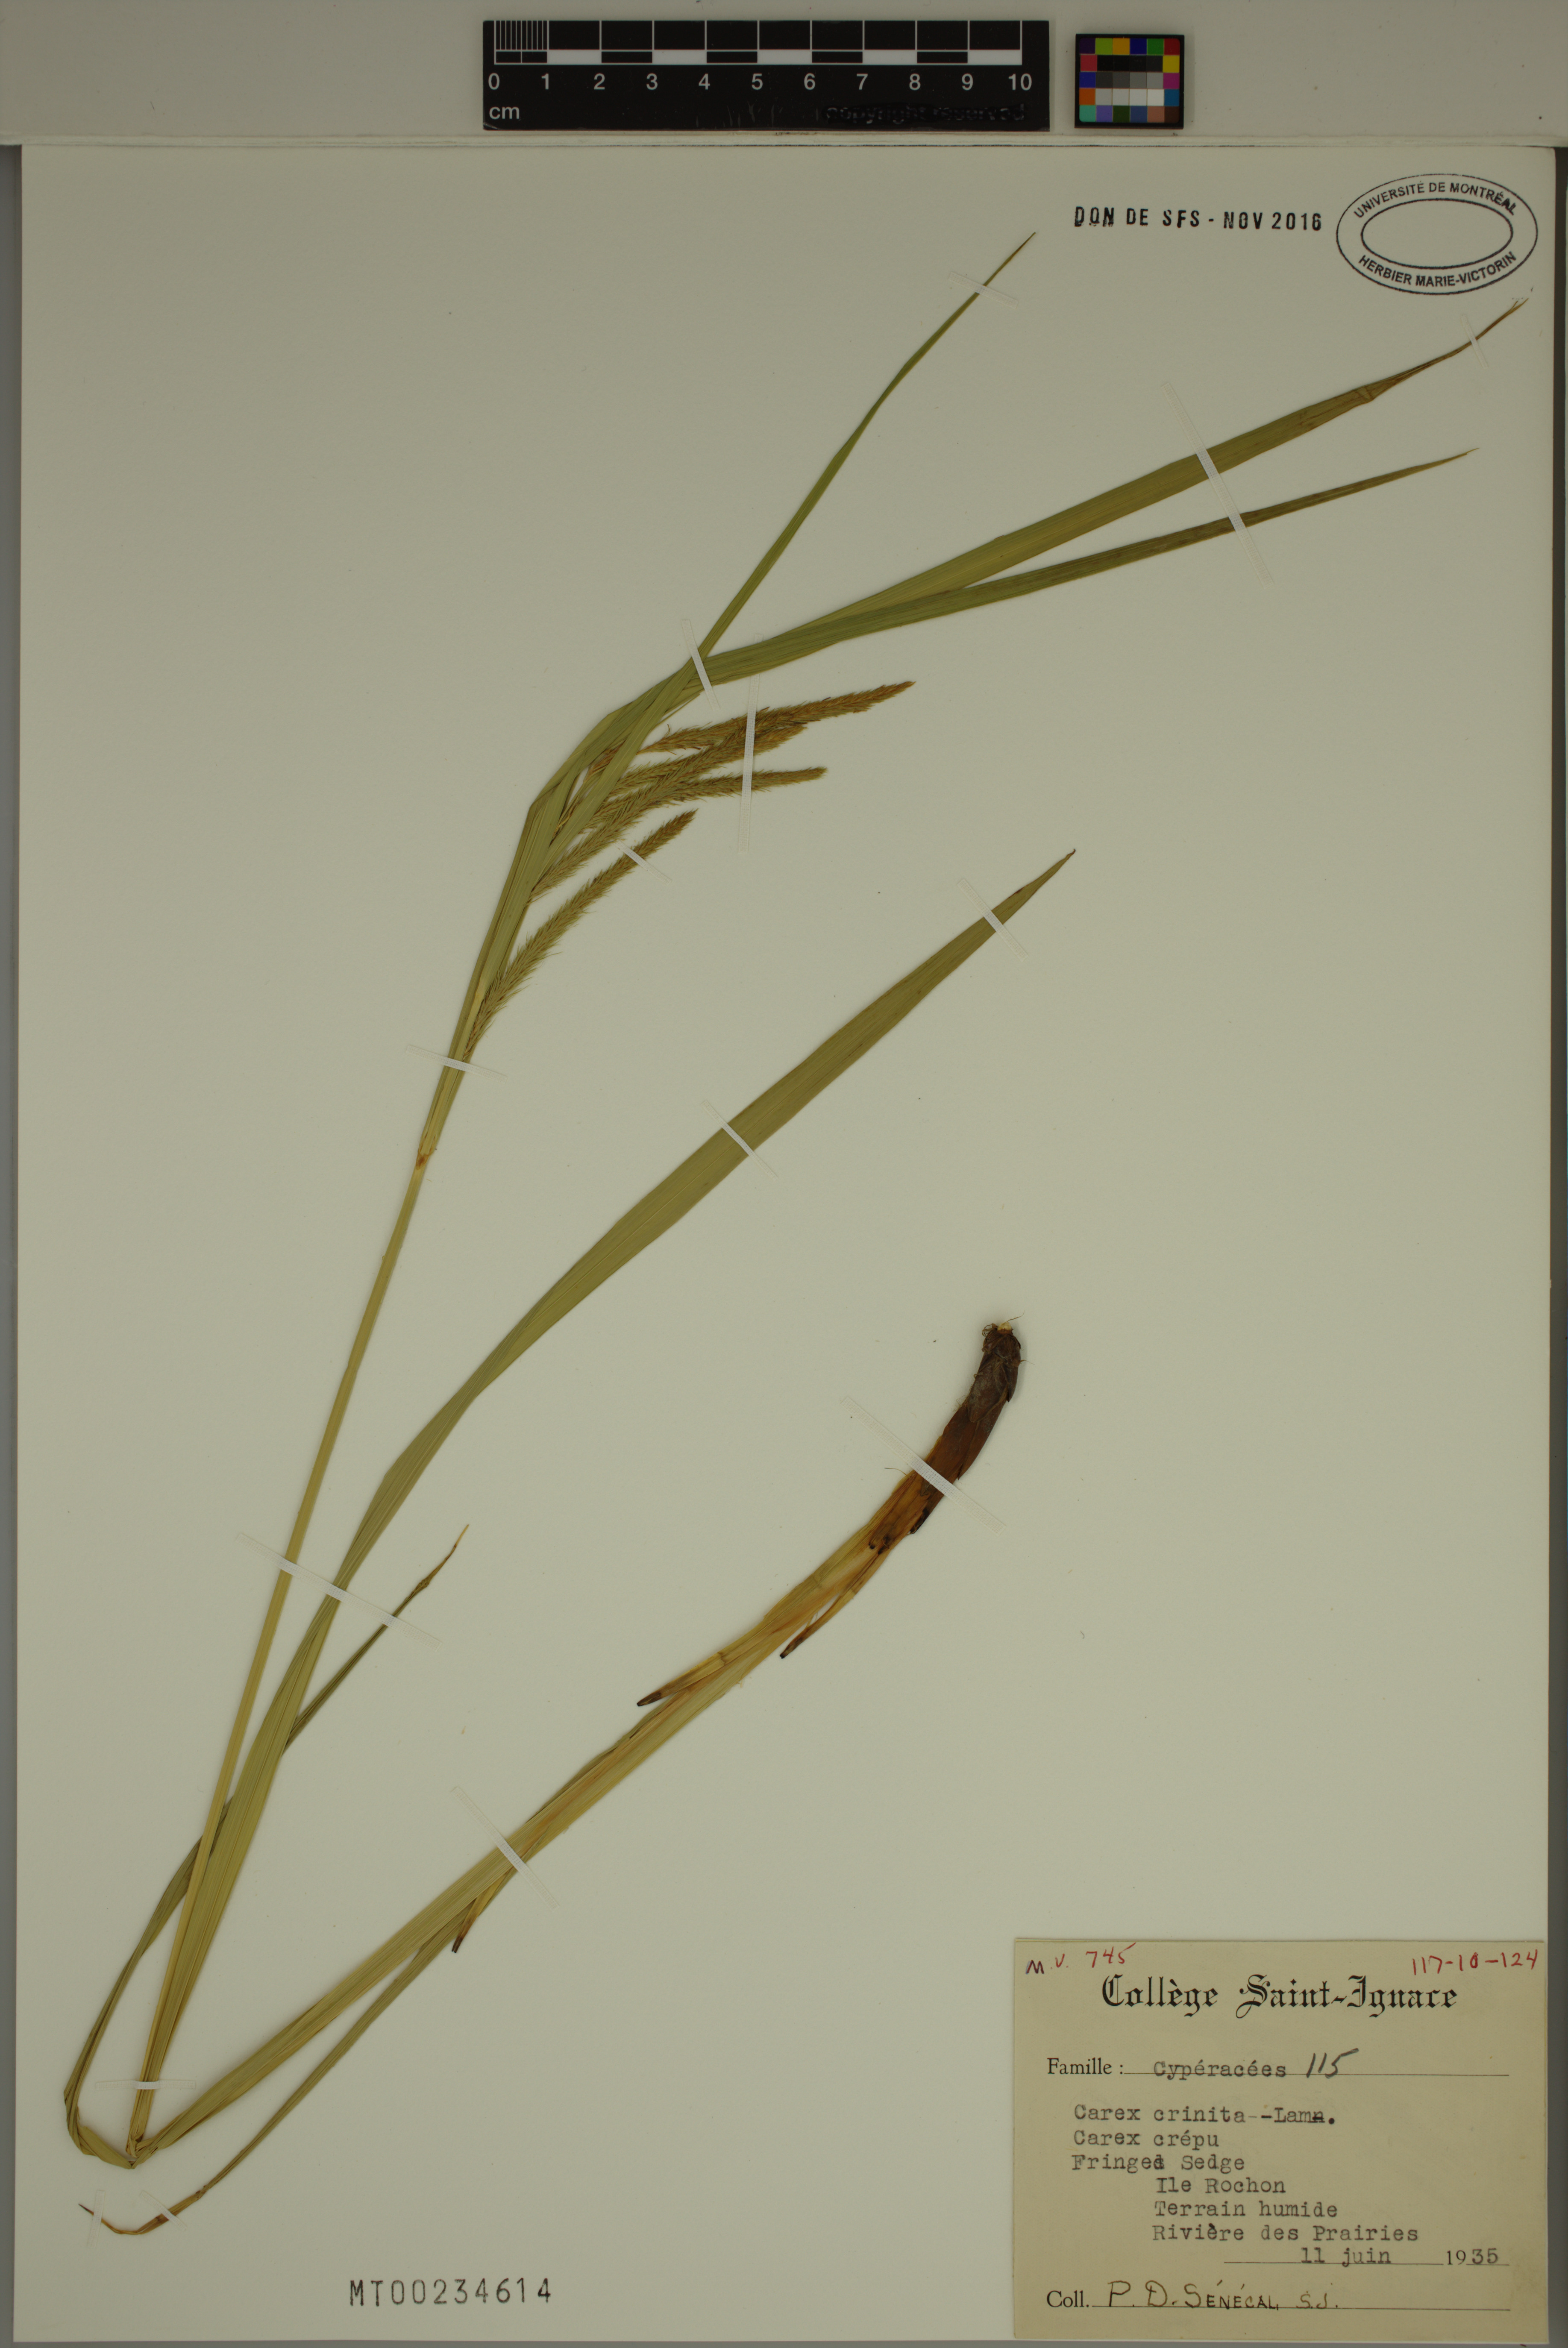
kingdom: Plantae
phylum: Tracheophyta
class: Liliopsida
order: Poales
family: Cyperaceae
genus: Carex
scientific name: Carex crinita
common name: Fringed sedge
